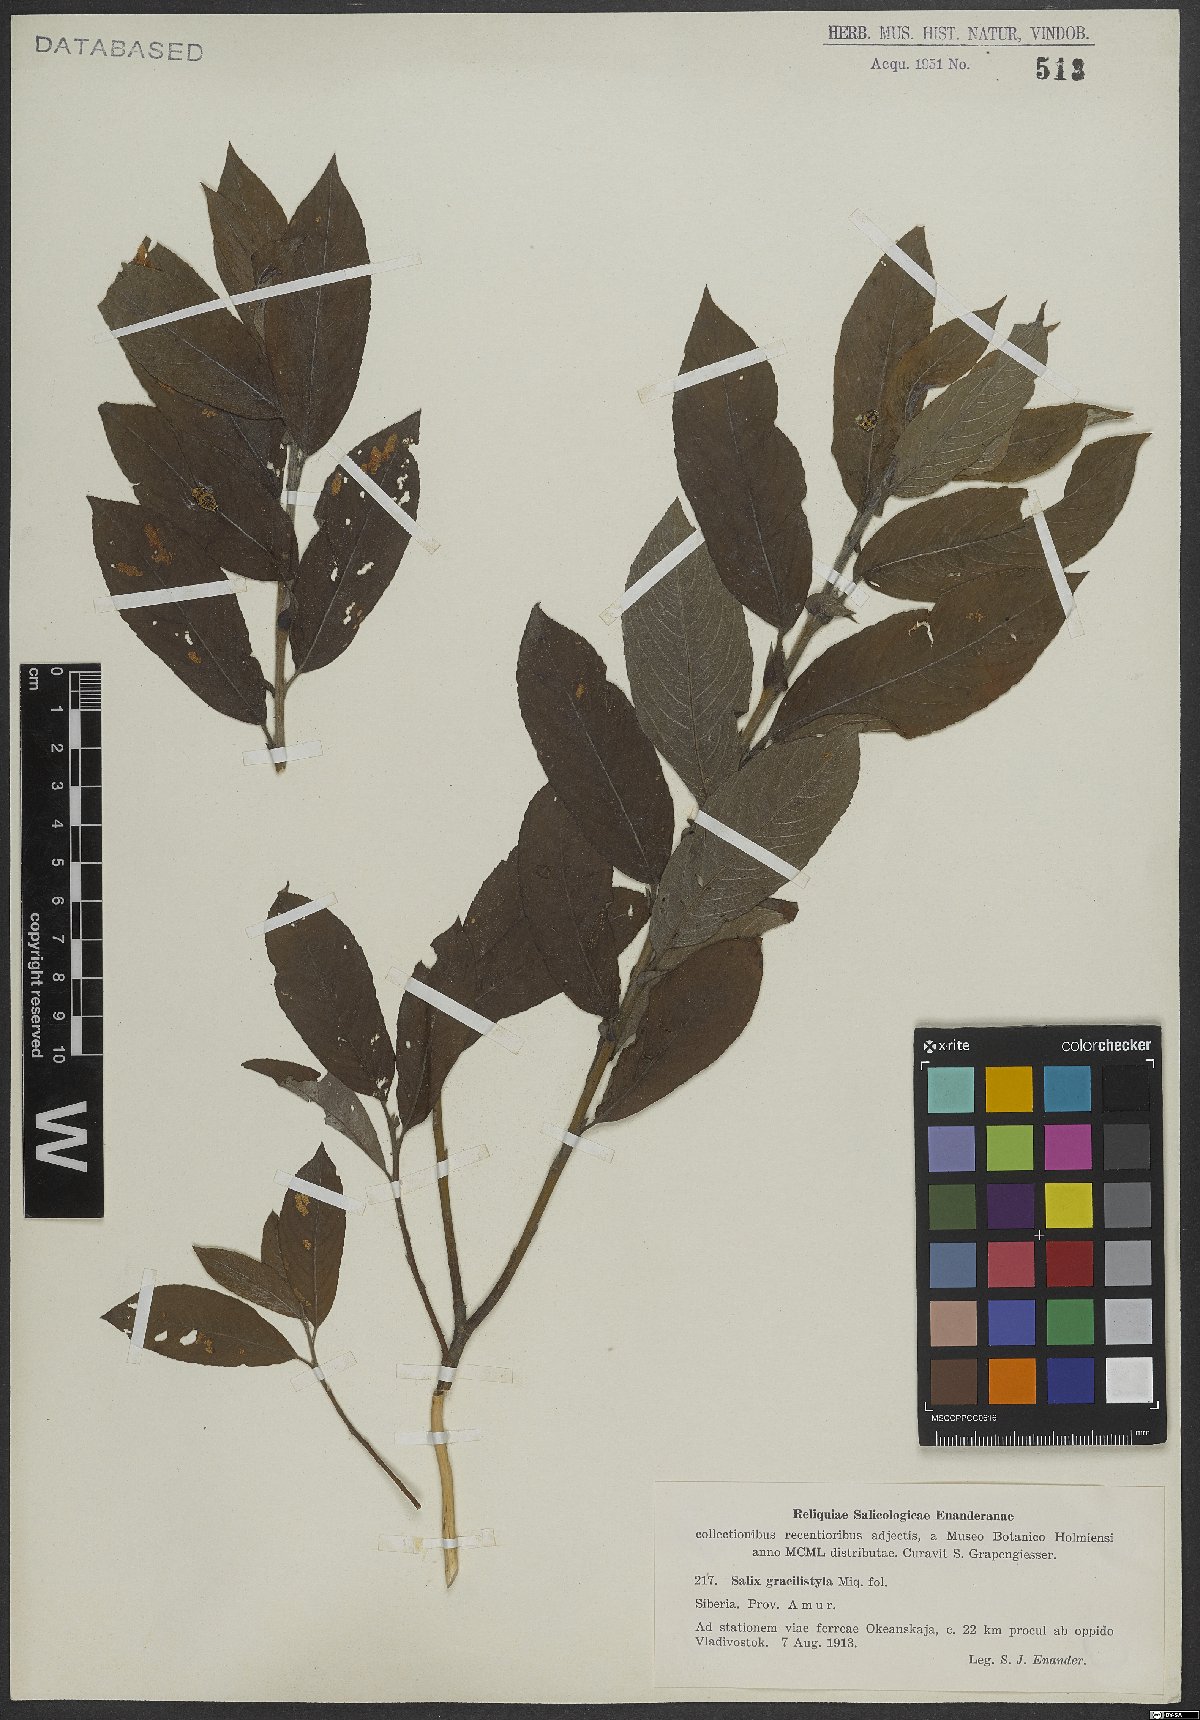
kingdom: Plantae
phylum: Tracheophyta
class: Magnoliopsida
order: Malpighiales
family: Salicaceae
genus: Salix
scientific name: Salix gracilistyla
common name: Rose-gold pussy willow
